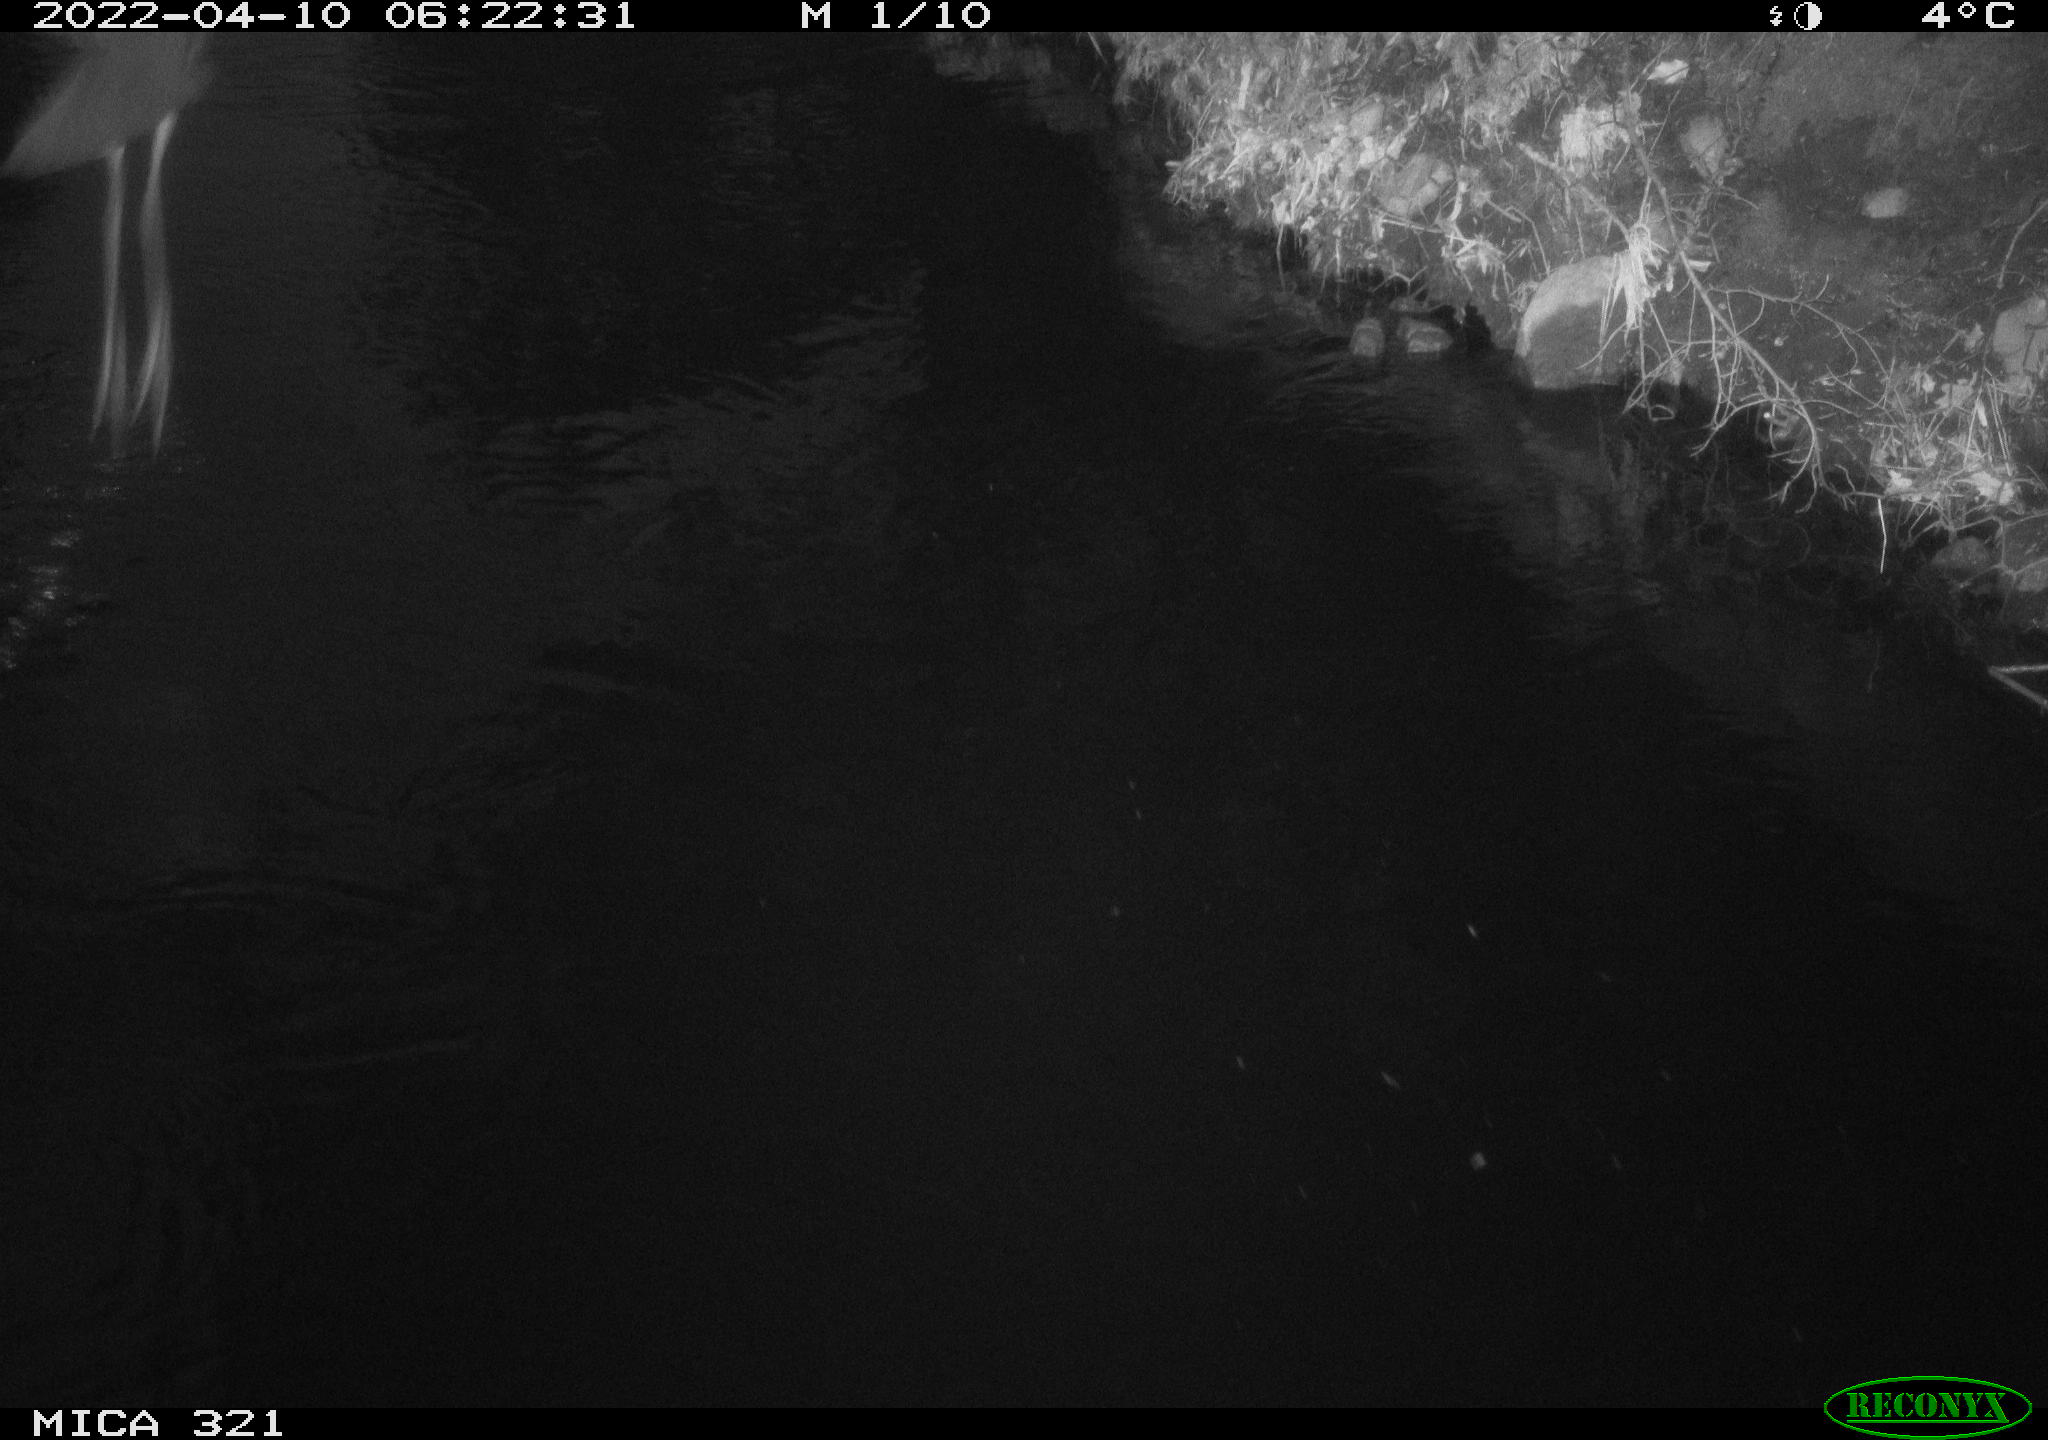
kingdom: Animalia
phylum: Chordata
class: Aves
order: Pelecaniformes
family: Ardeidae
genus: Ardea
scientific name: Ardea cinerea
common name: Grey heron
